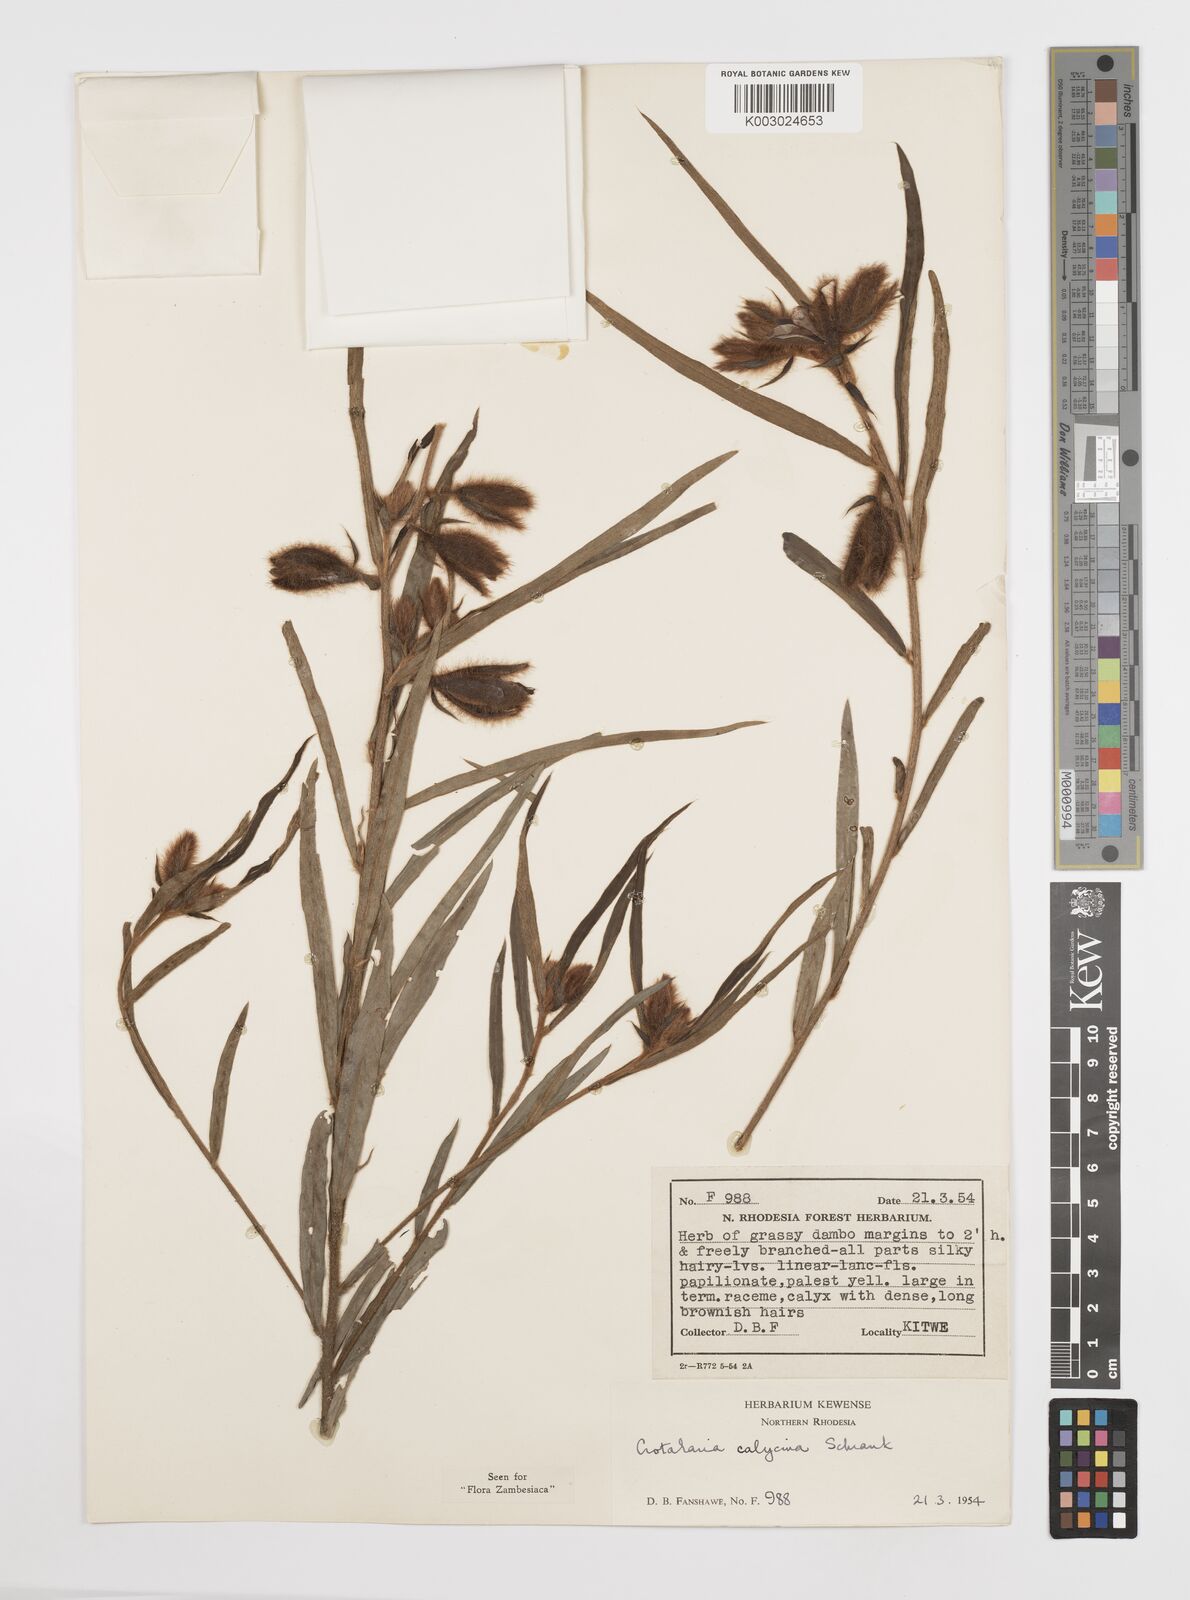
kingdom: Plantae
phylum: Tracheophyta
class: Magnoliopsida
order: Fabales
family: Fabaceae
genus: Crotalaria
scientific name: Crotalaria calycina
